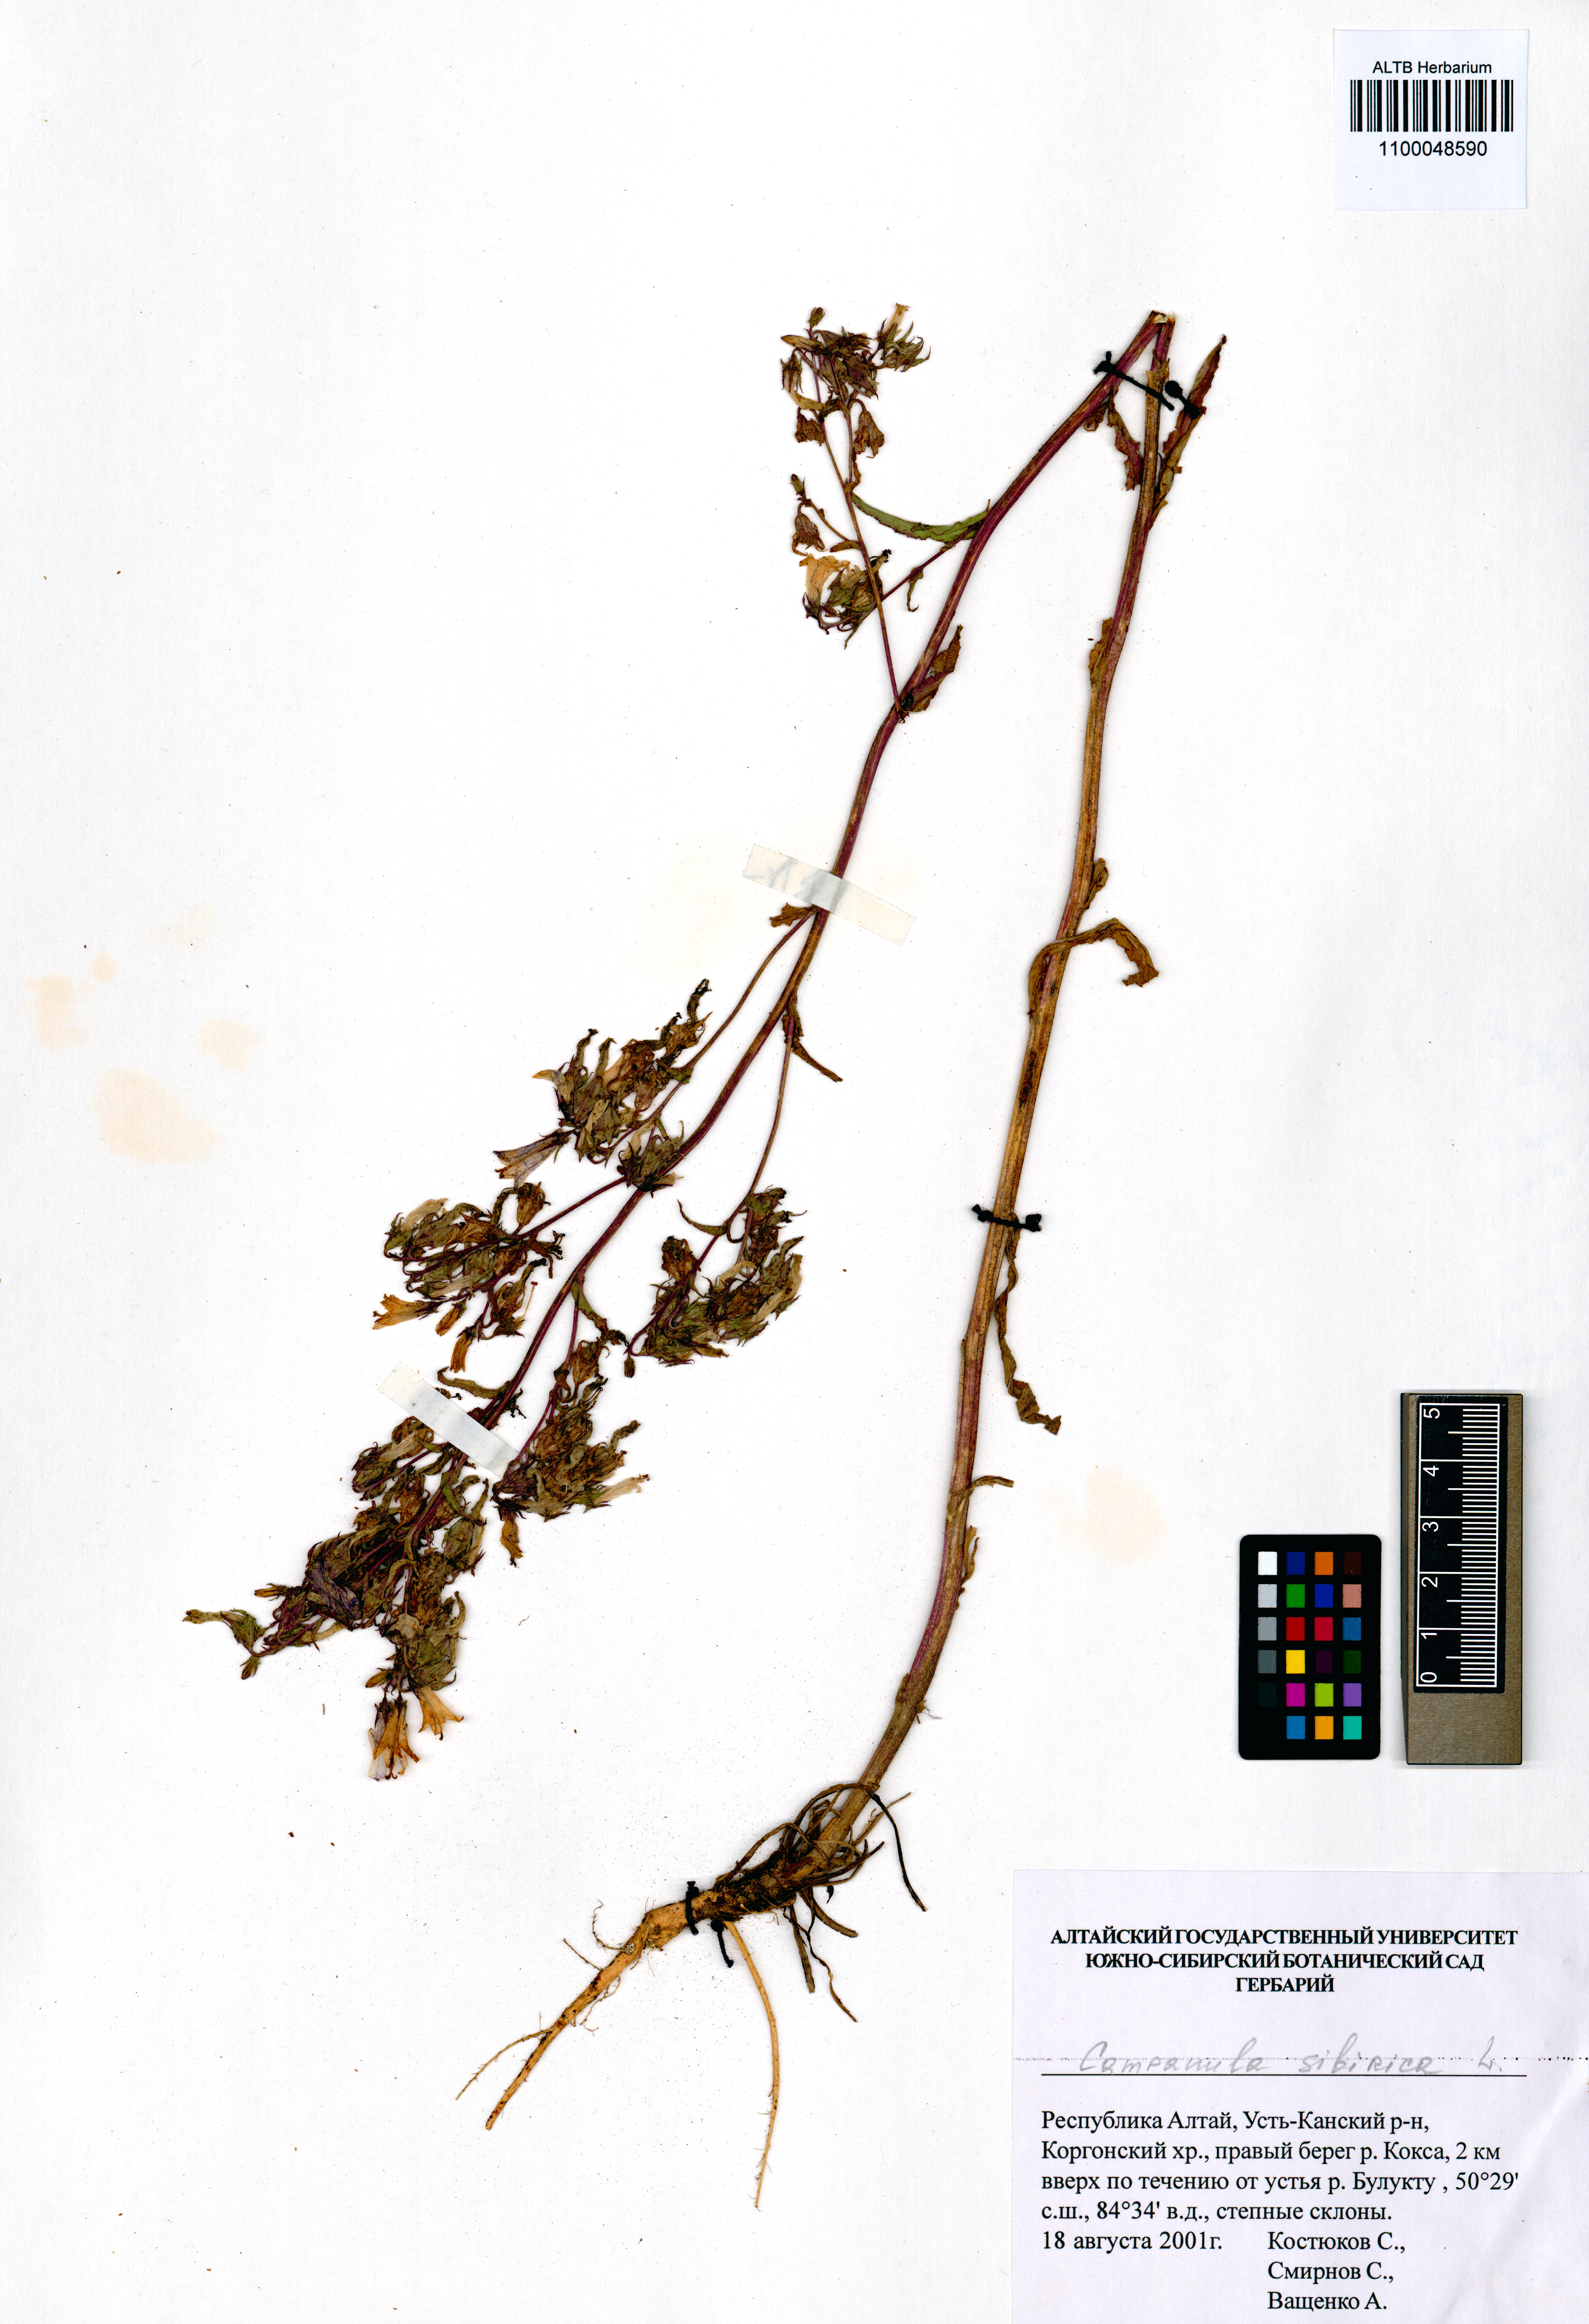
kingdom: Plantae
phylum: Tracheophyta
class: Magnoliopsida
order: Asterales
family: Campanulaceae
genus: Campanula
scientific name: Campanula sibirica
